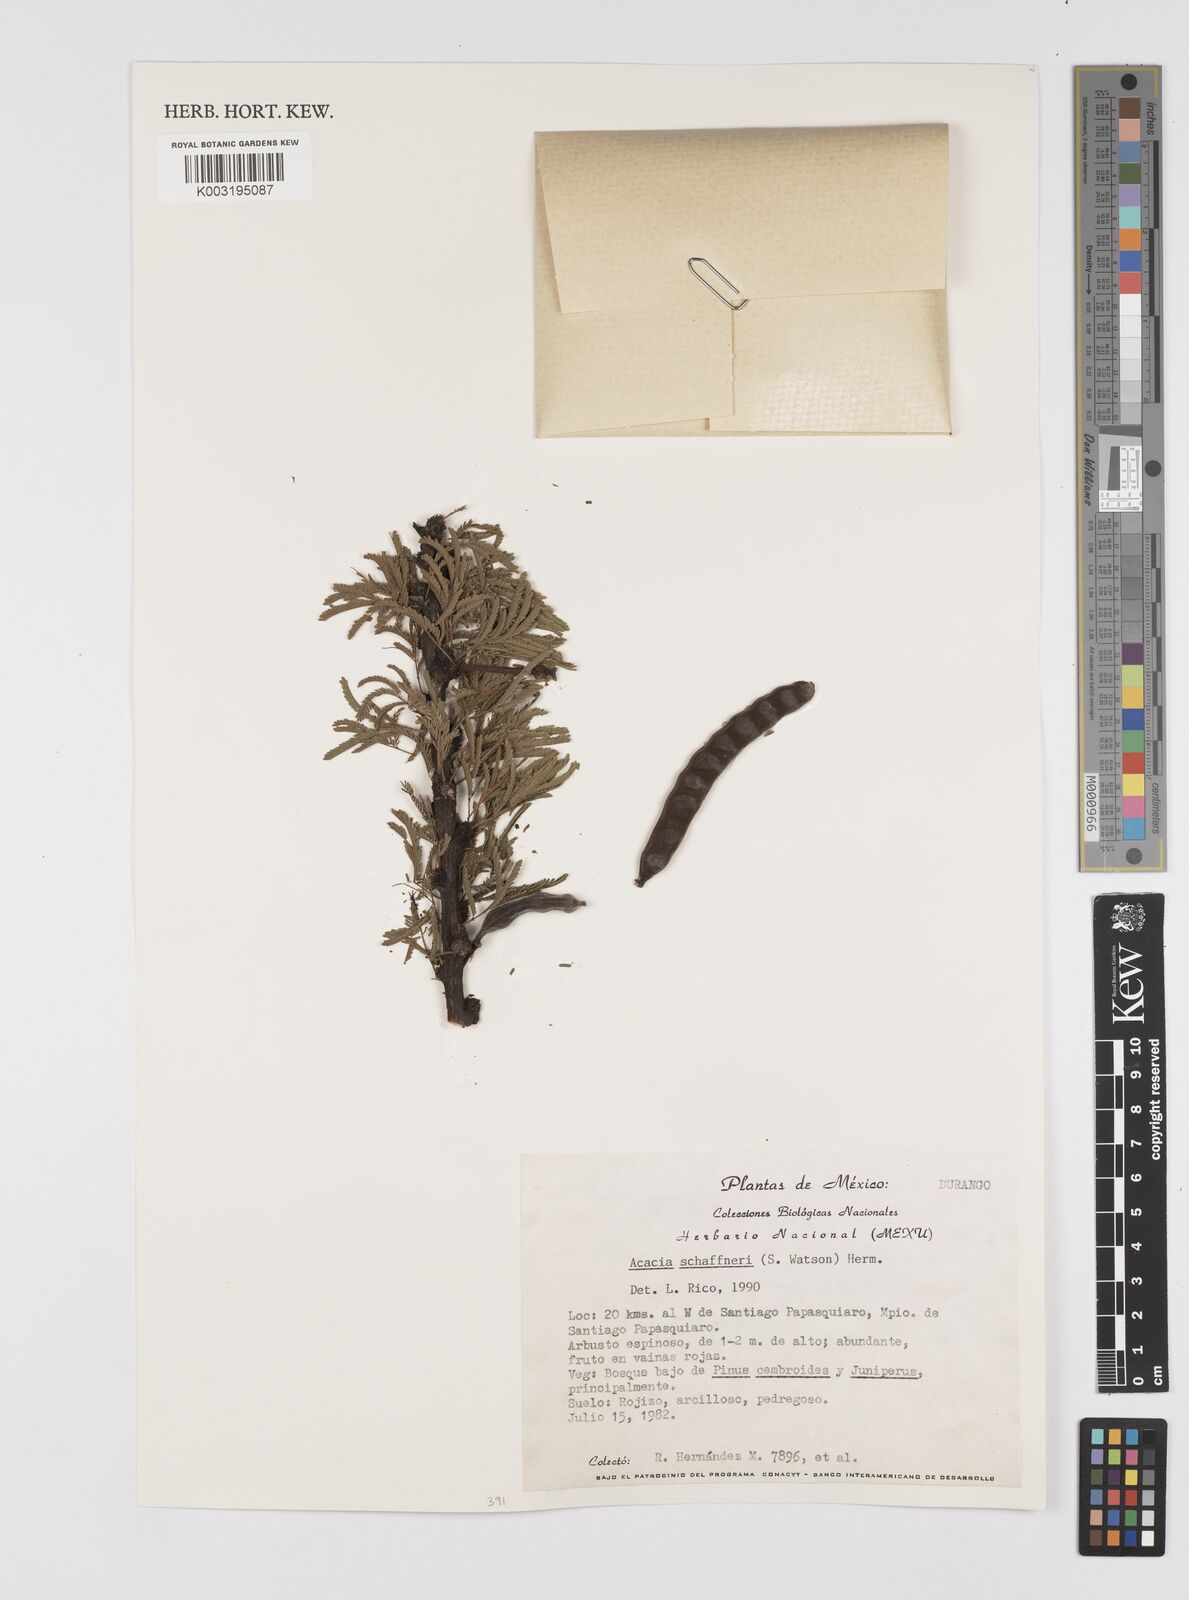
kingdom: Plantae
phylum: Tracheophyta
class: Magnoliopsida
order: Fabales
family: Fabaceae
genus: Vachellia
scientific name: Vachellia schaffneri
